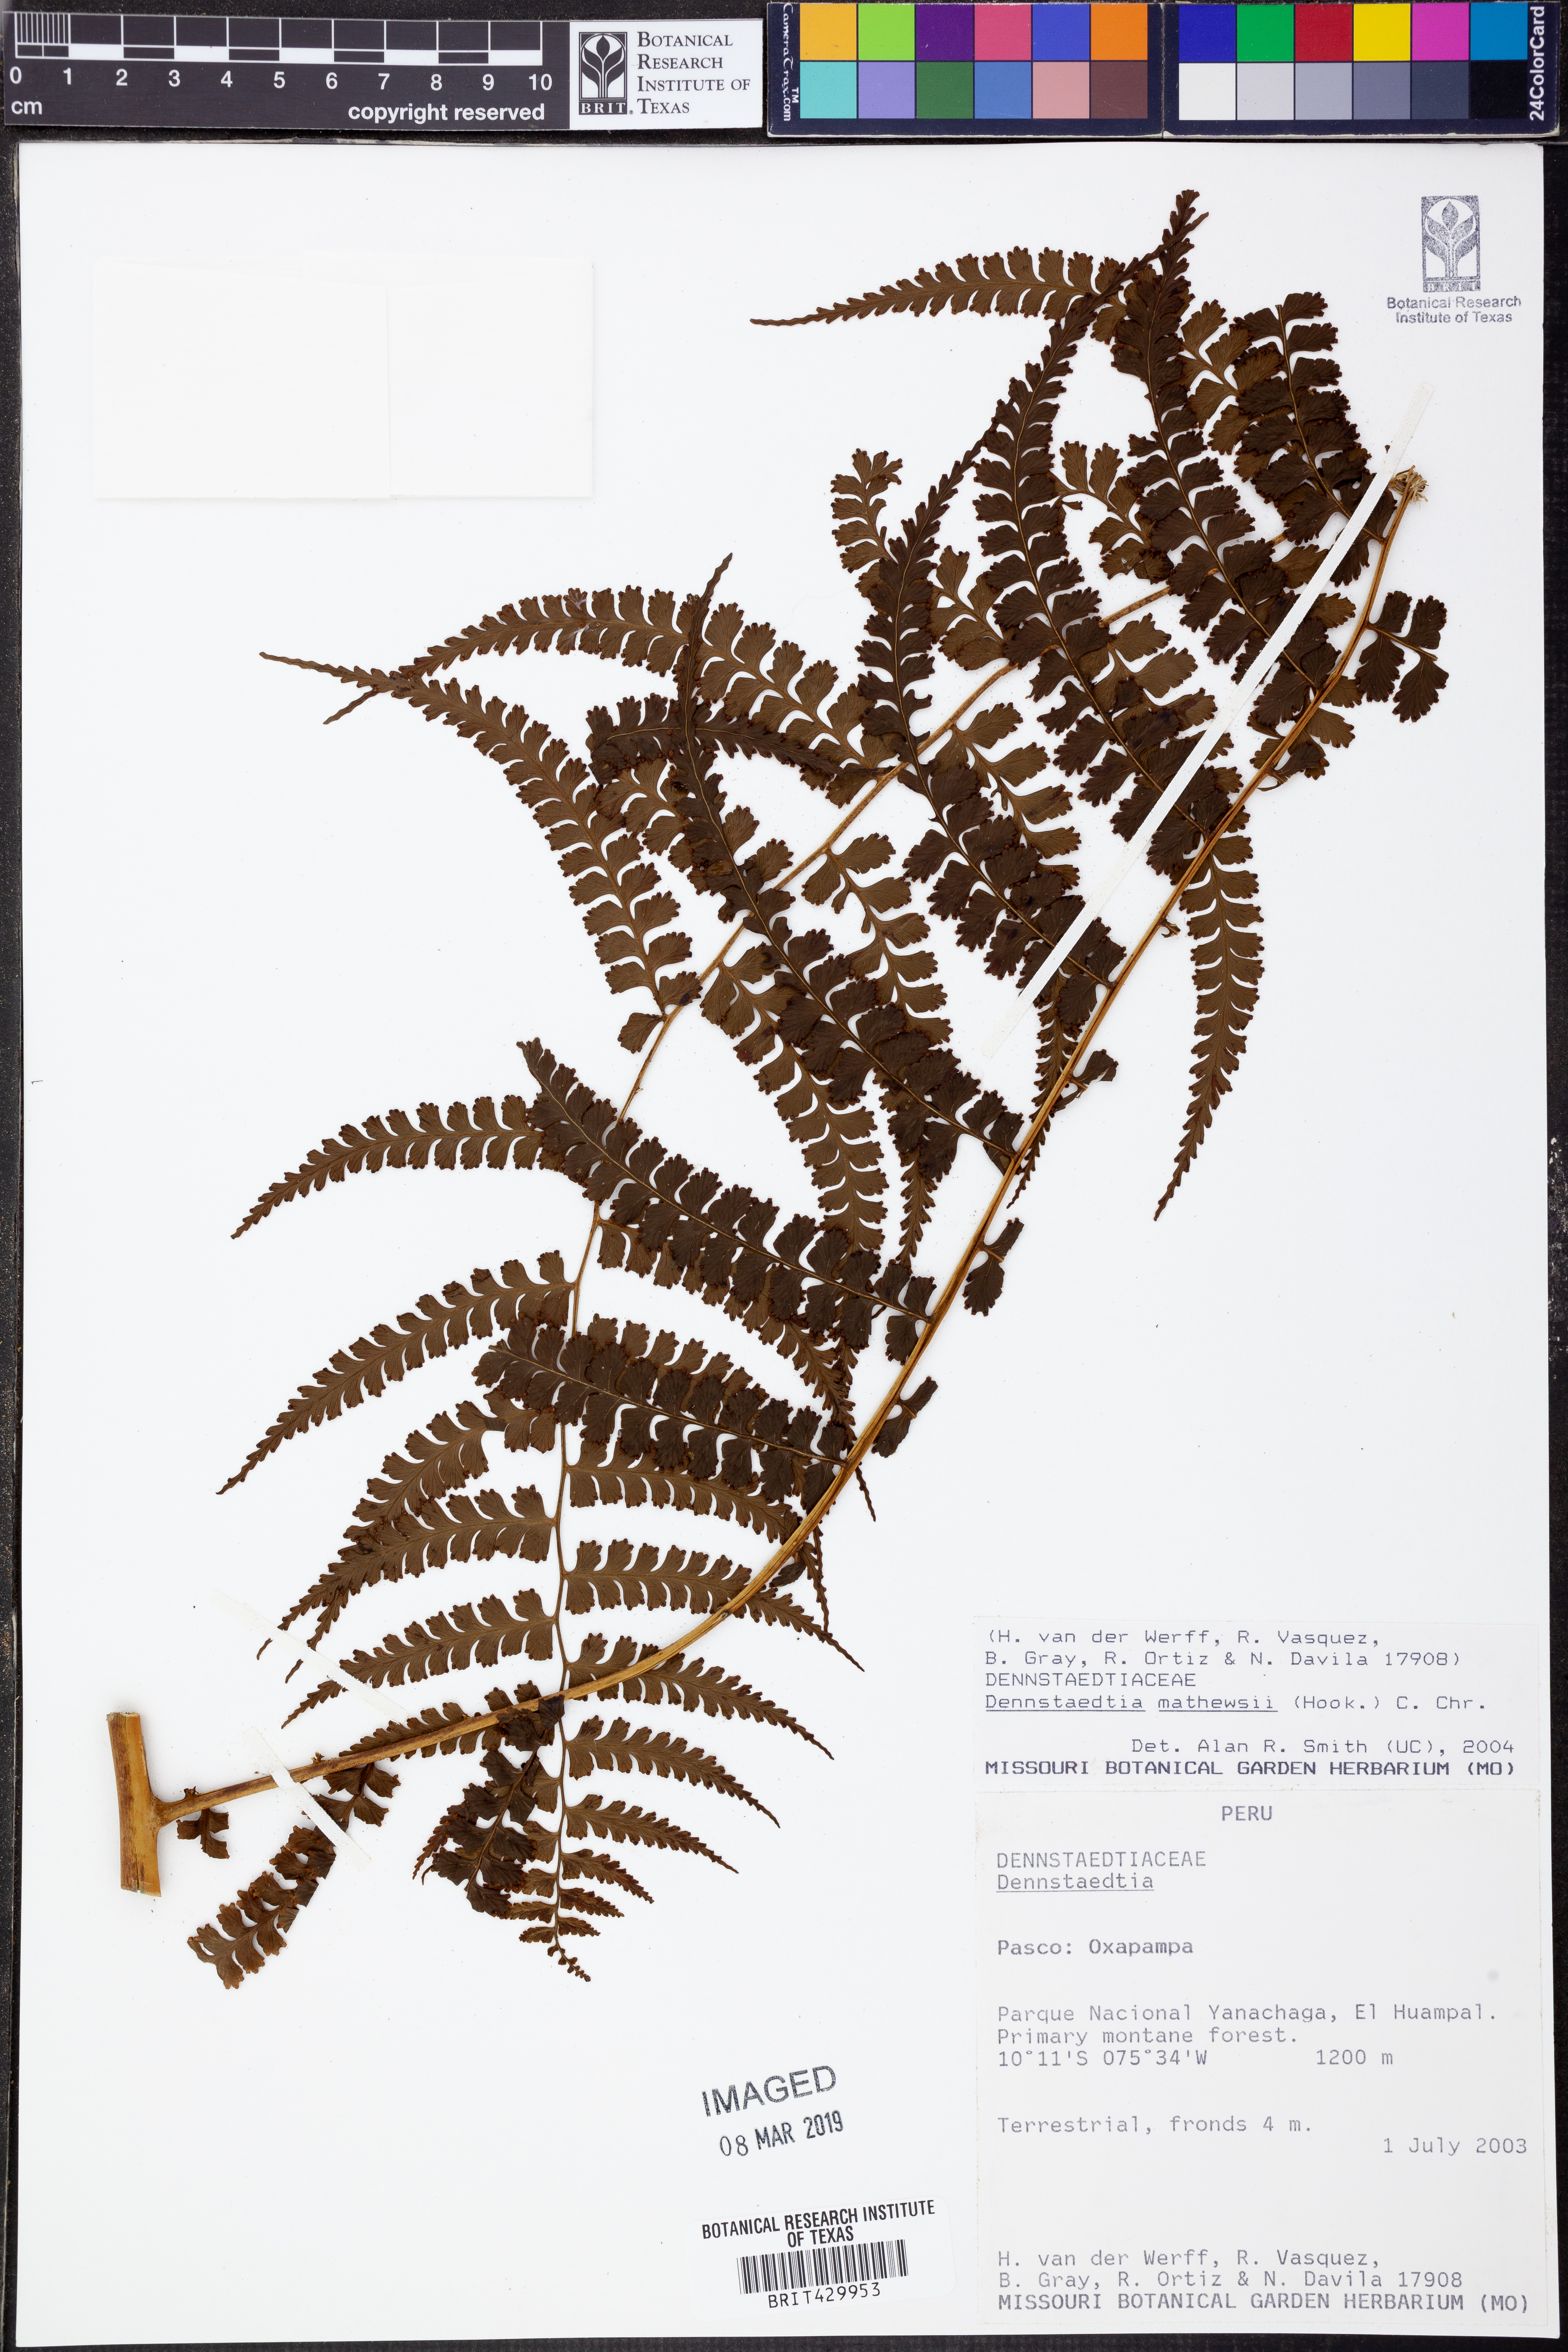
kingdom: Plantae
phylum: Tracheophyta
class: Polypodiopsida
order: Polypodiales
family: Dennstaedtiaceae
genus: Dennstaedtia
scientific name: Dennstaedtia mathewsii
